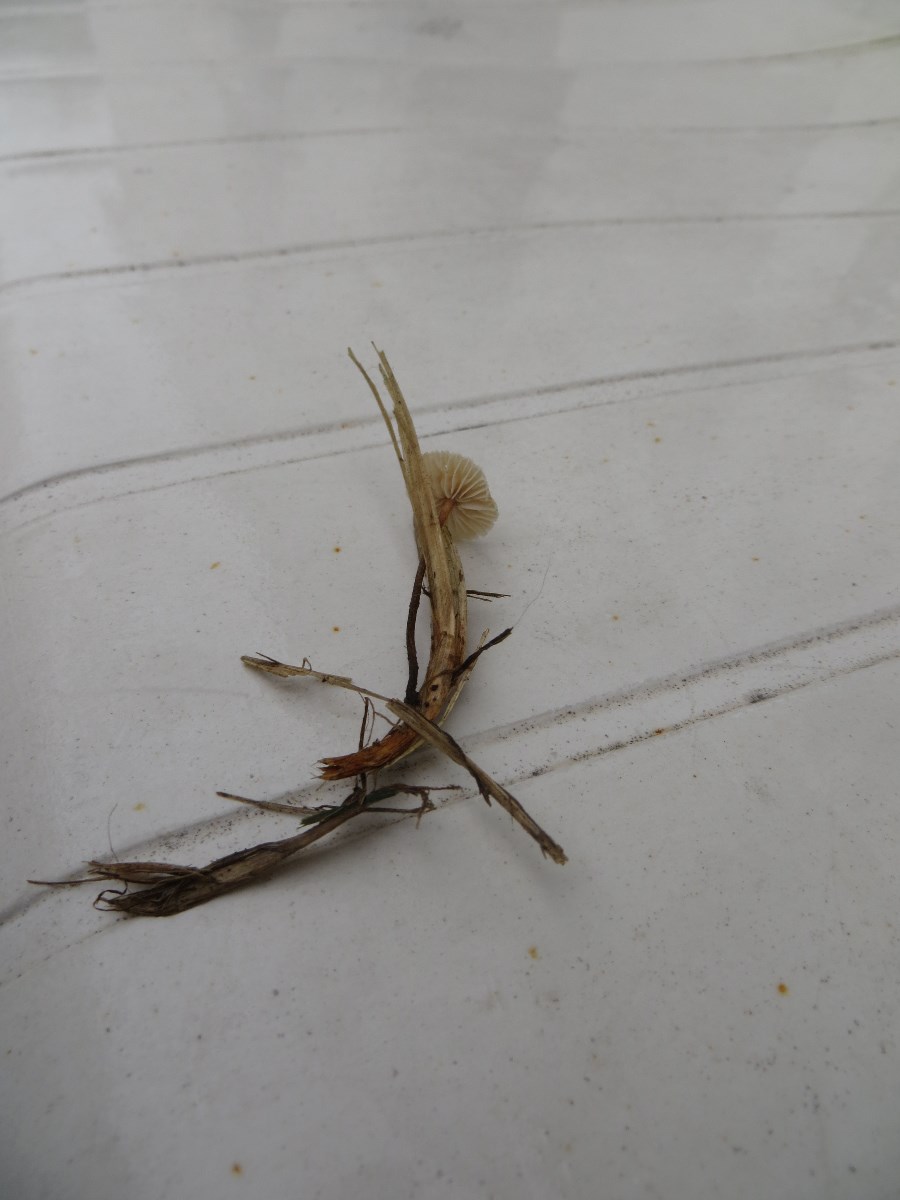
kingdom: Fungi
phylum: Basidiomycota
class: Agaricomycetes
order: Agaricales
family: Marasmiaceae
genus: Crinipellis
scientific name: Crinipellis scabella
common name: børstefod
